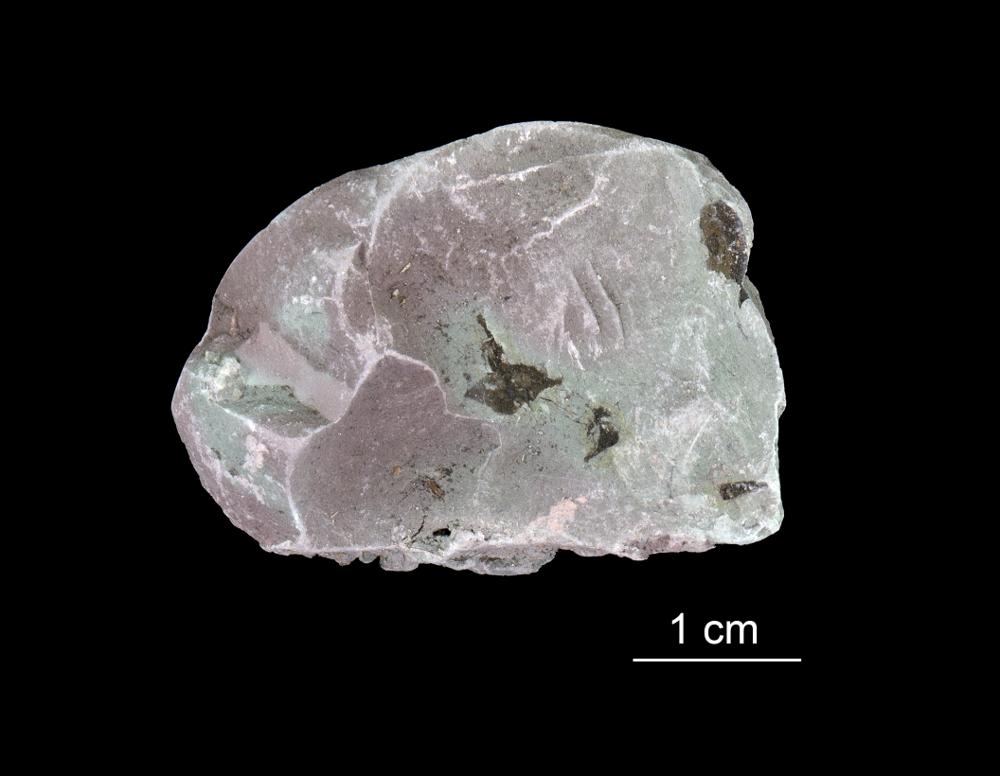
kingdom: Chromista
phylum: Foraminifera
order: Astrorhizida
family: Hyperamminidae
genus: Platysolenites
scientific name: Platysolenites antiquissimus
